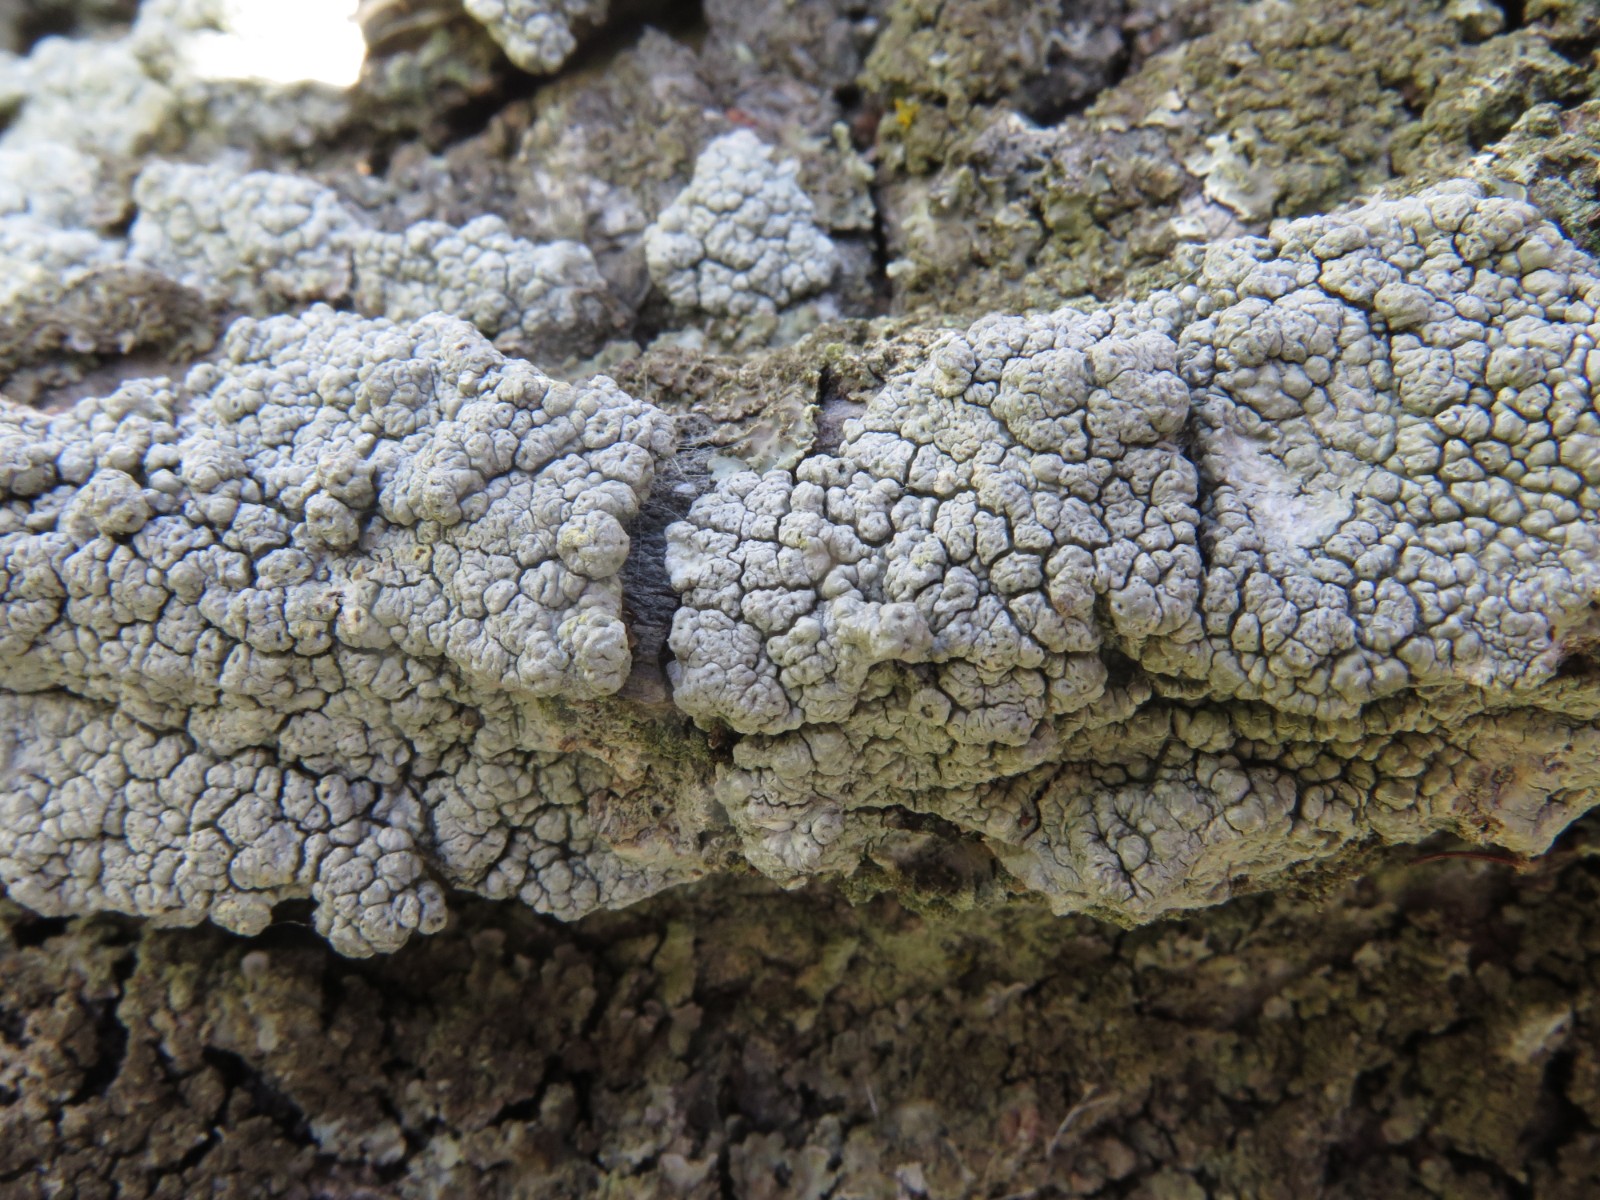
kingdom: Fungi
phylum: Ascomycota
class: Lecanoromycetes
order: Pertusariales
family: Pertusariaceae
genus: Pertusaria
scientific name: Pertusaria pertusa
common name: almindelig prikvortelav
